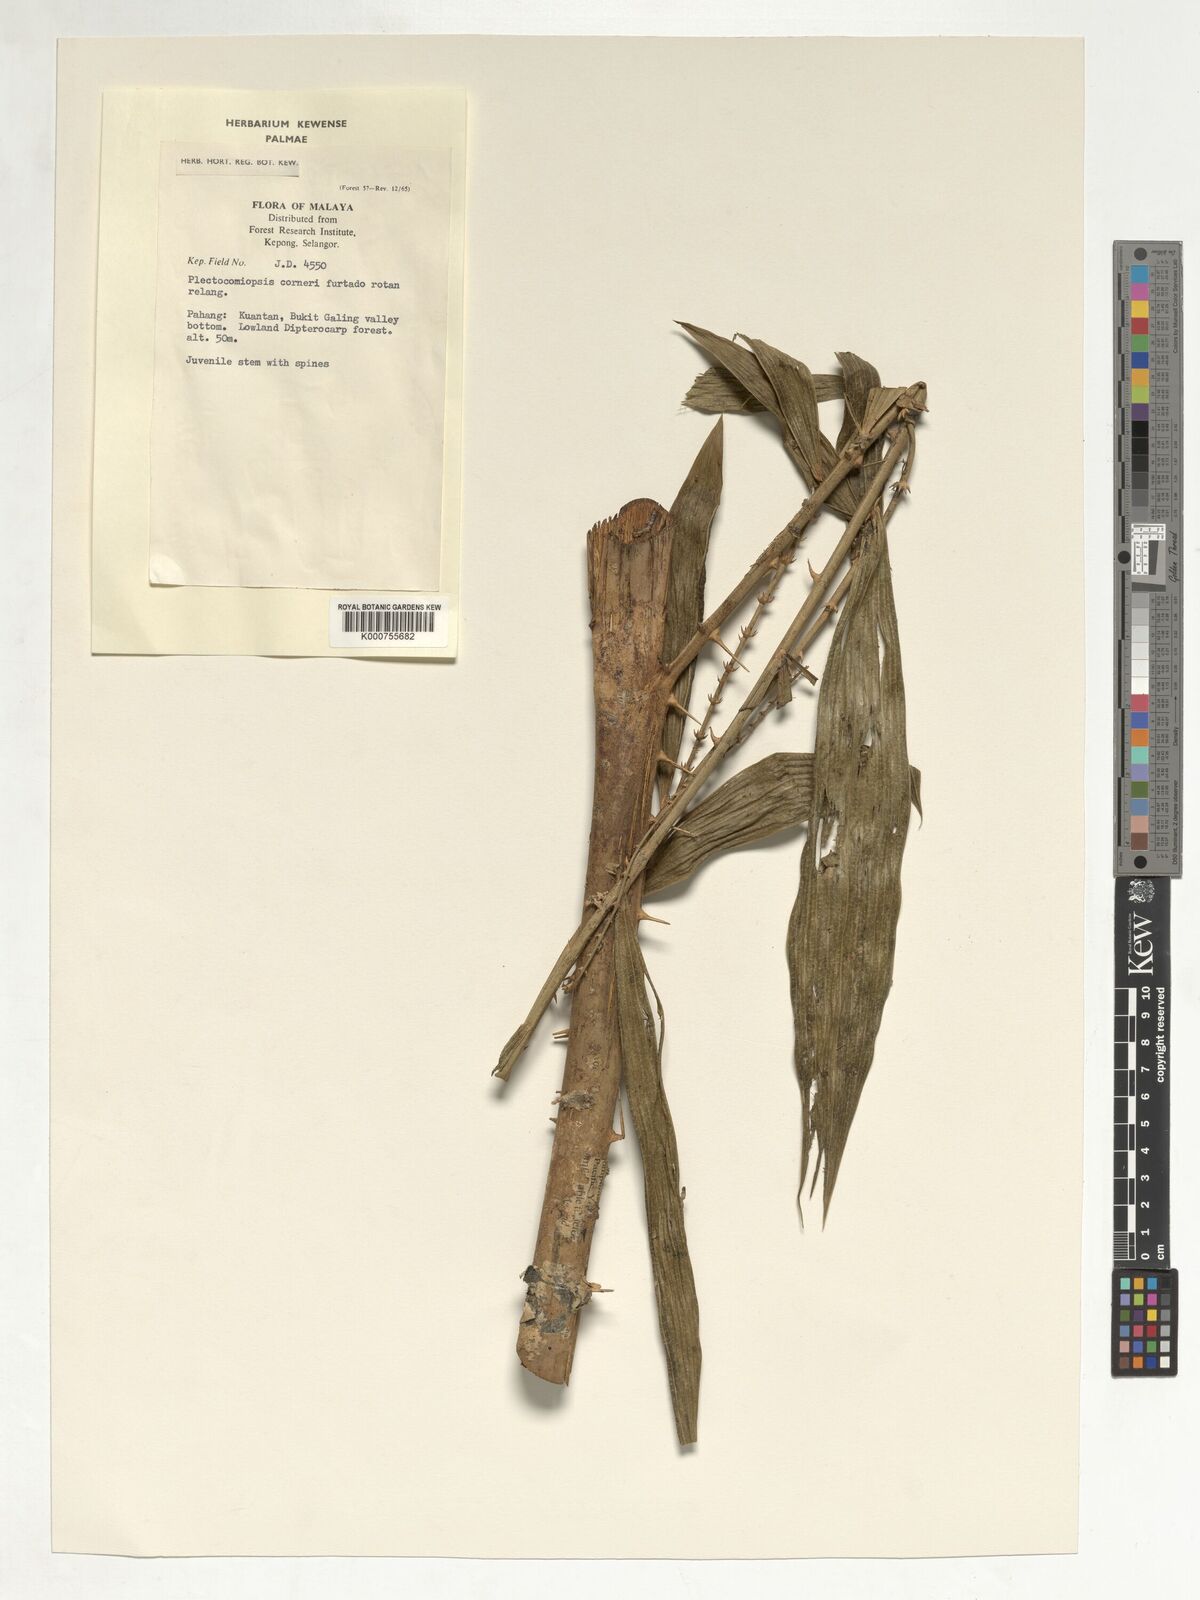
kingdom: Plantae
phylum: Tracheophyta
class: Liliopsida
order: Arecales
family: Arecaceae
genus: Plectocomiopsis
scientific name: Plectocomiopsis corneri
